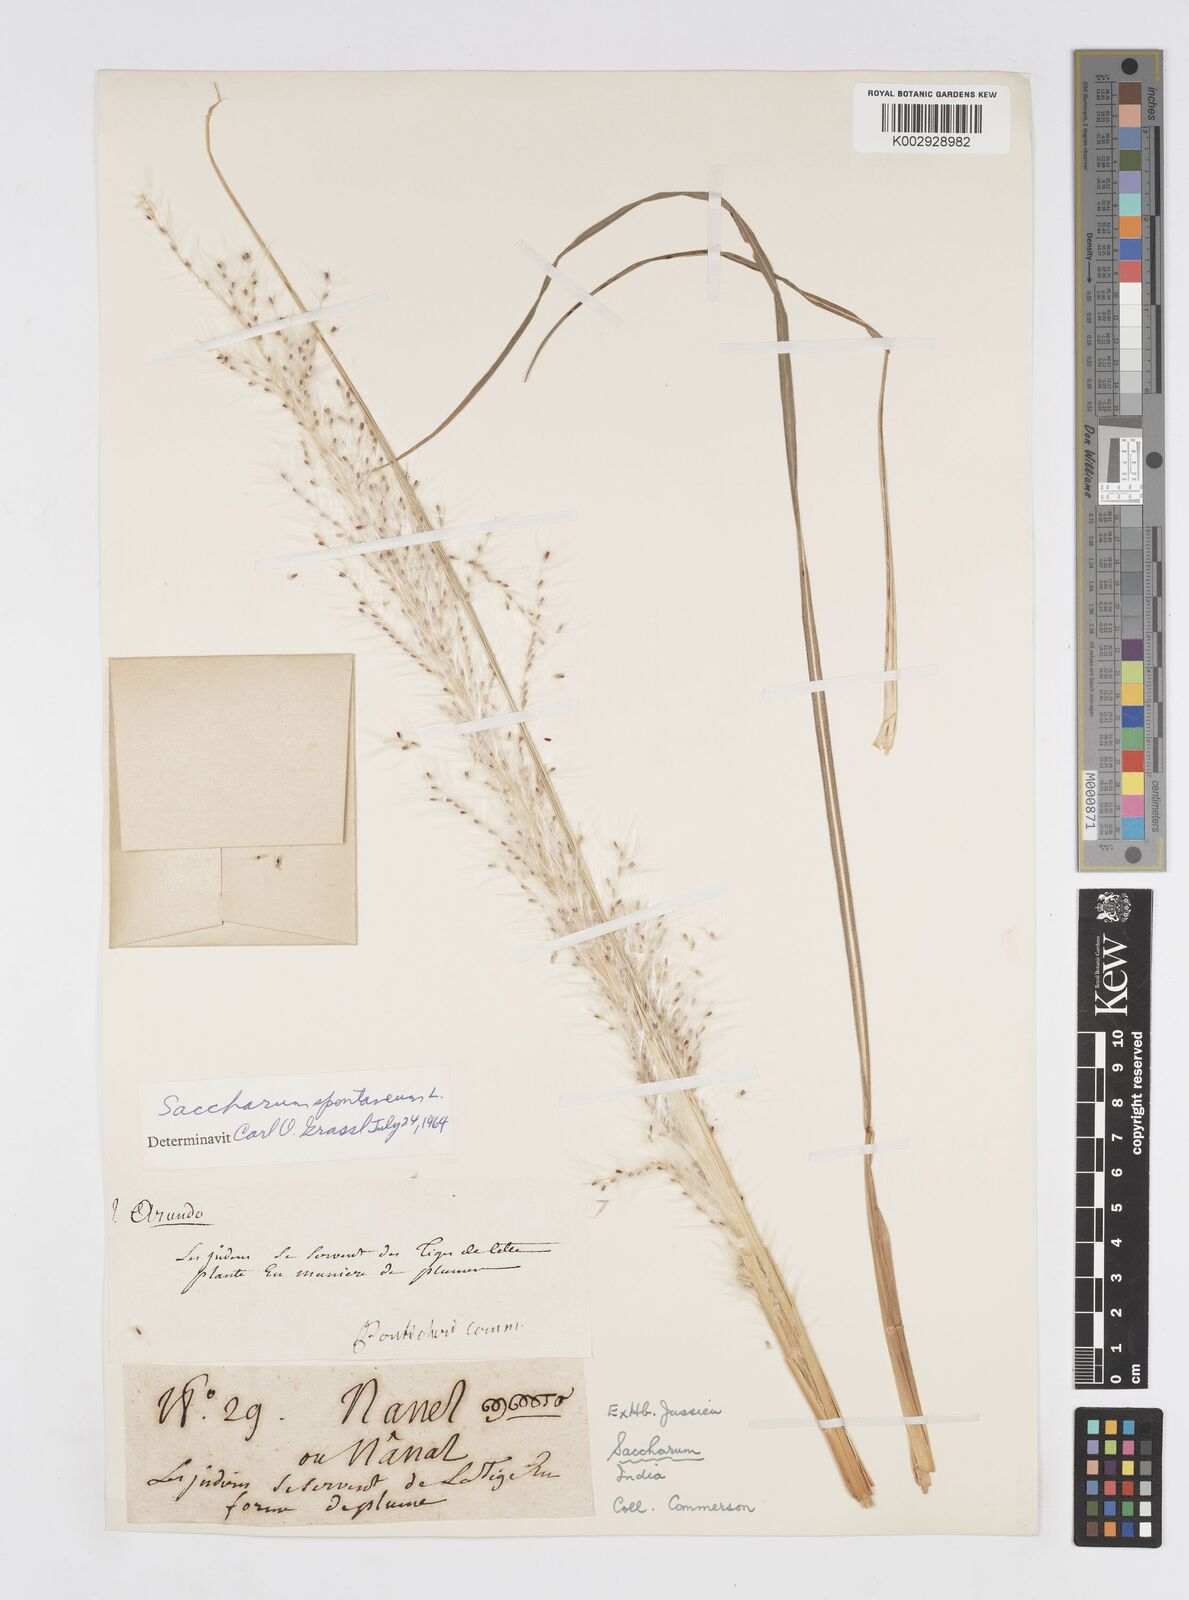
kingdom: Plantae
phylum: Tracheophyta
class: Liliopsida
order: Poales
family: Poaceae
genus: Saccharum
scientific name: Saccharum spontaneum
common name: Wild sugarcane
